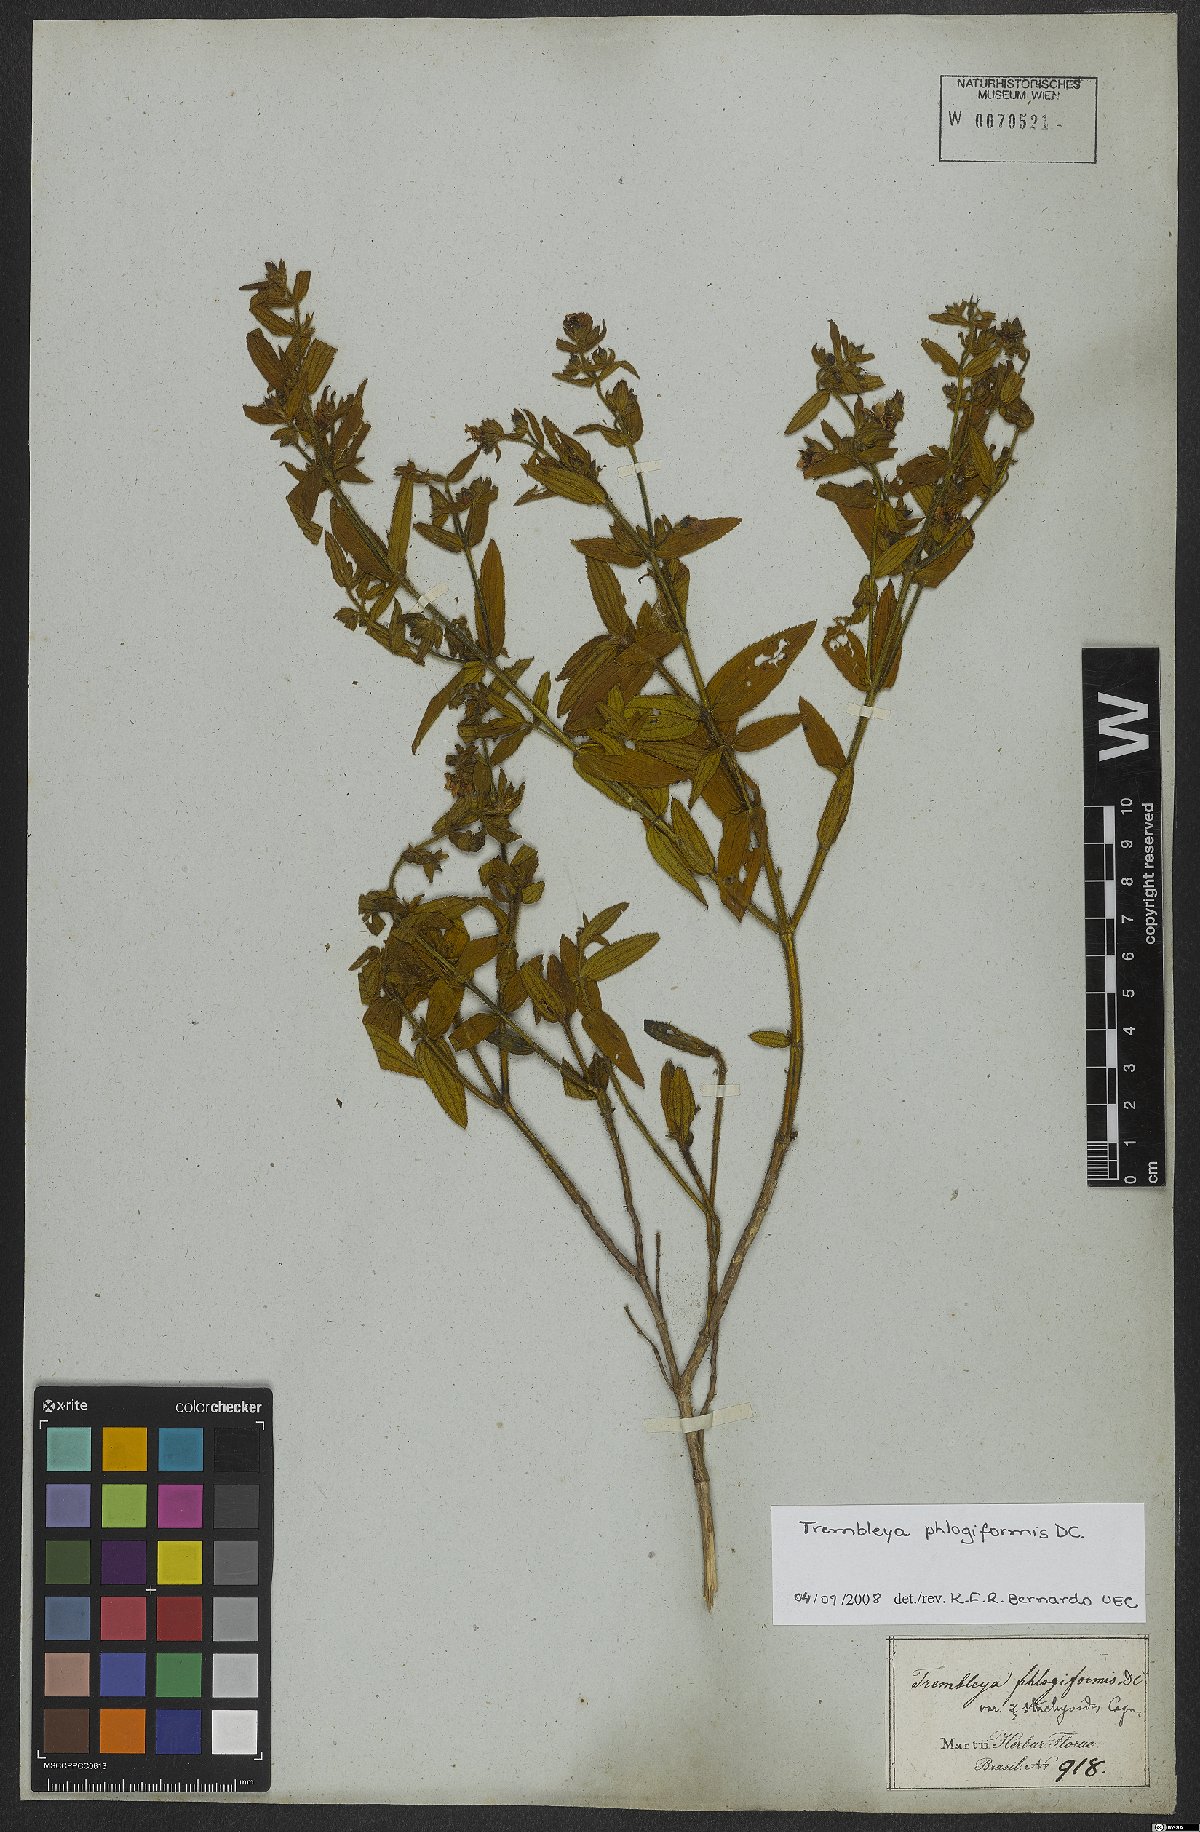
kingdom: Plantae
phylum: Tracheophyta
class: Magnoliopsida
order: Myrtales
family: Melastomataceae
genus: Microlicia
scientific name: Microlicia phlogiformis
